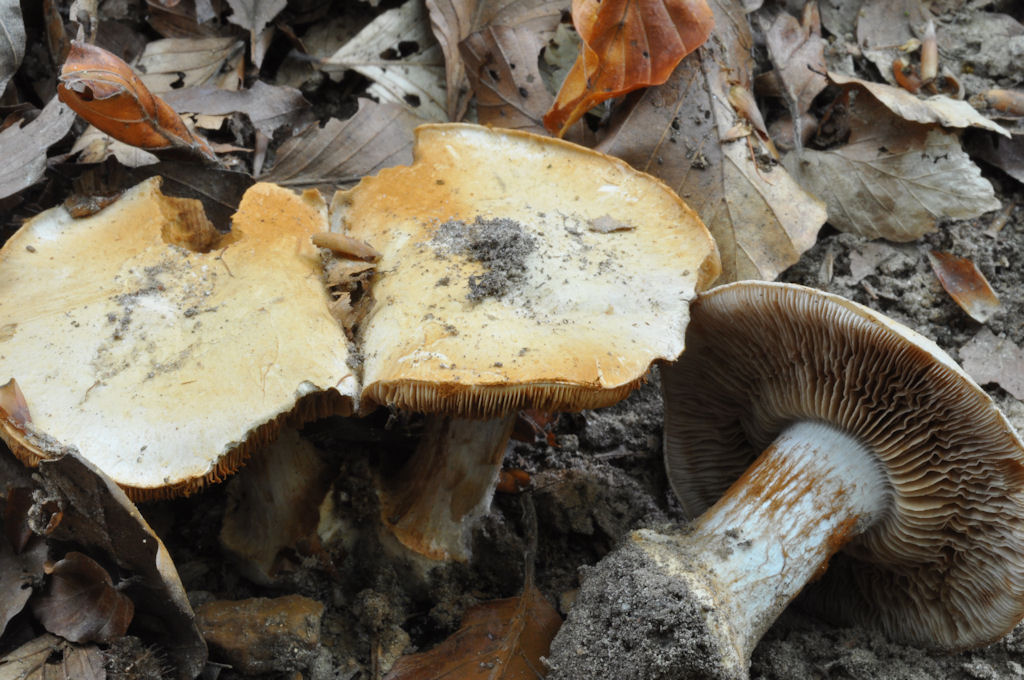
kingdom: Fungi
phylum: Basidiomycota
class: Agaricomycetes
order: Agaricales
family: Cortinariaceae
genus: Cortinarius
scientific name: Cortinarius anserinus
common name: bøge-slørhat
